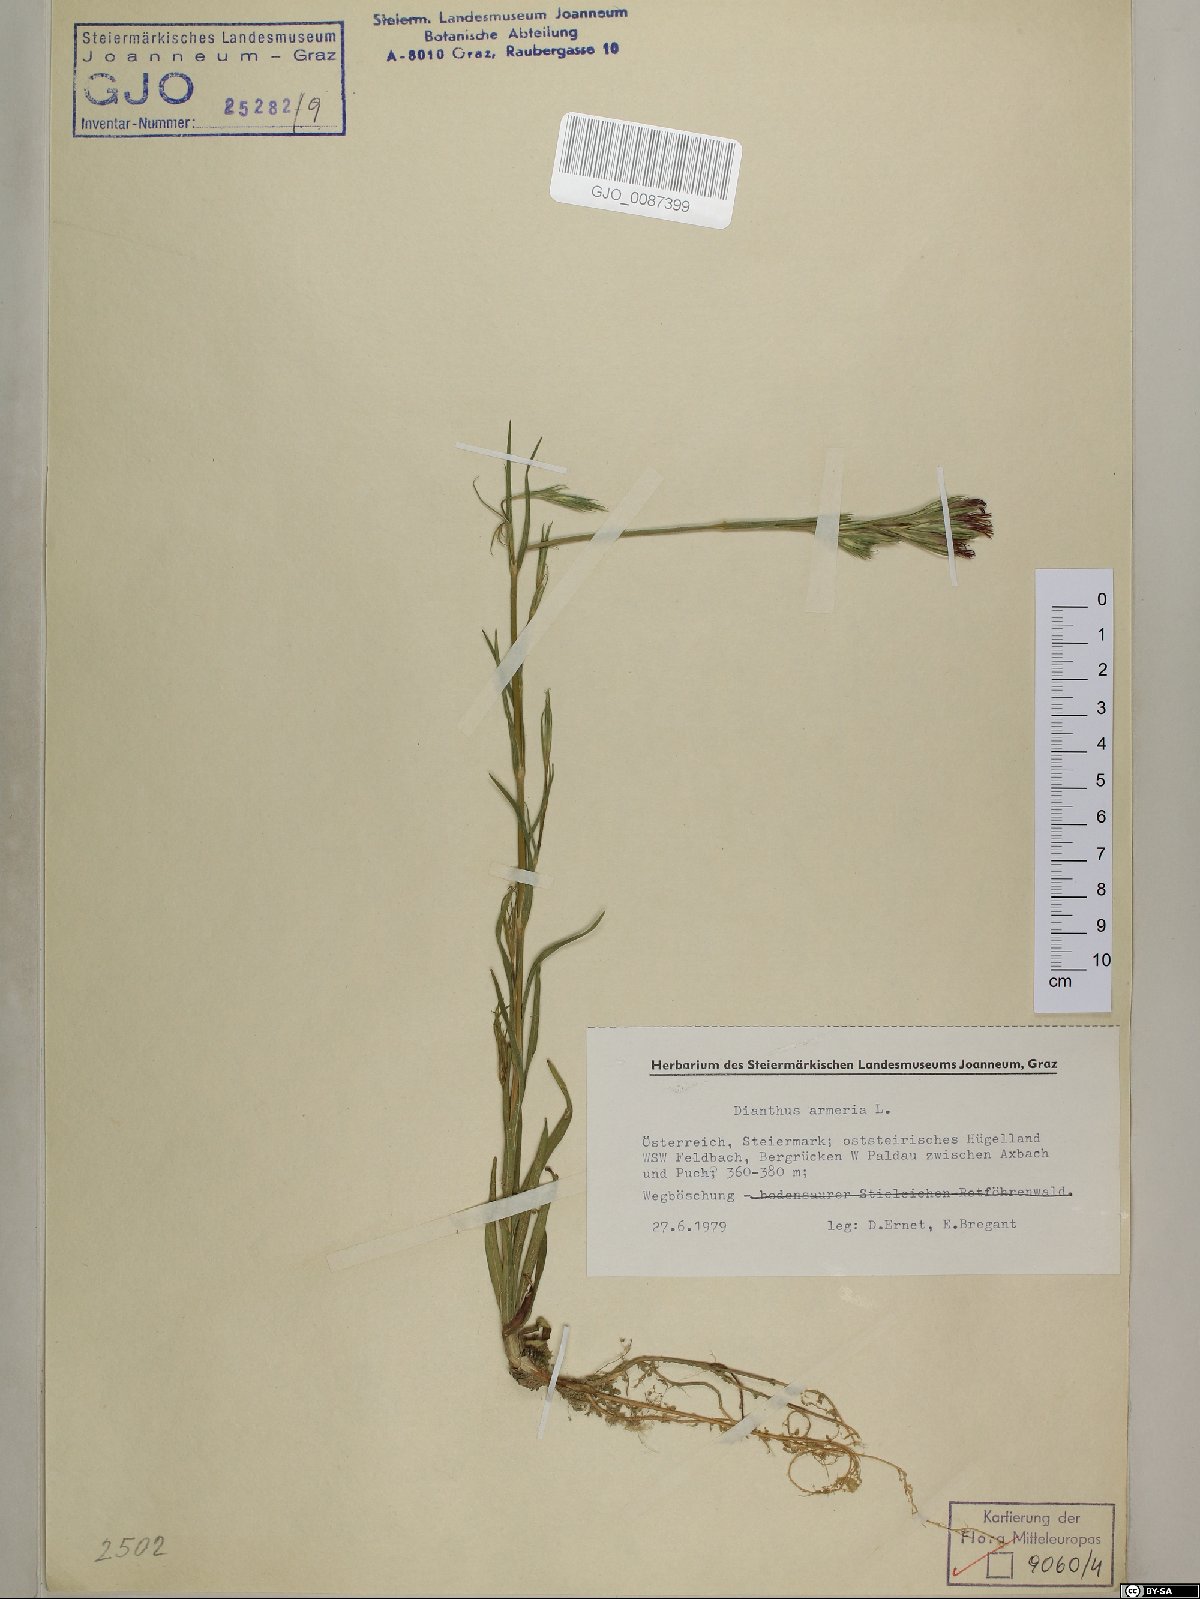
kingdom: Plantae
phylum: Tracheophyta
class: Magnoliopsida
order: Caryophyllales
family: Caryophyllaceae
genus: Dianthus
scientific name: Dianthus armeria
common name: Deptford pink
